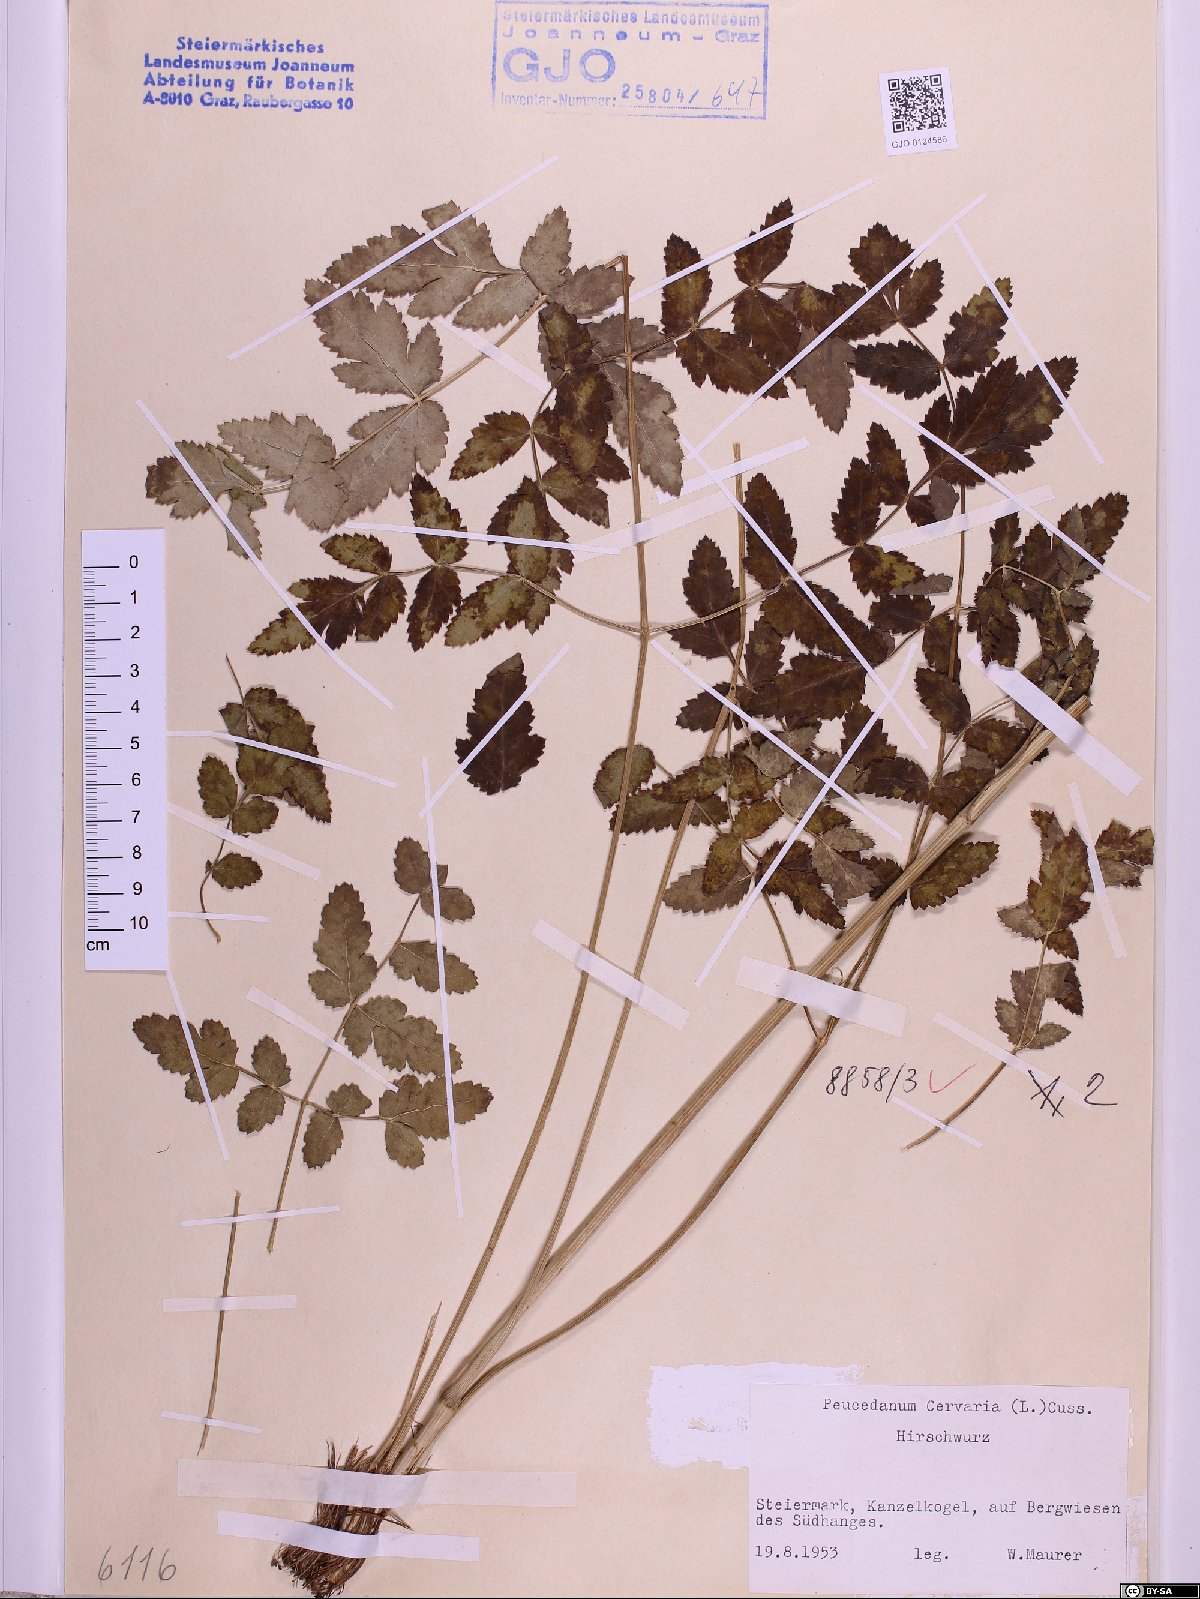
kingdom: Plantae
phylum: Tracheophyta
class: Magnoliopsida
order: Apiales
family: Apiaceae
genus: Cervaria
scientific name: Cervaria rivini
